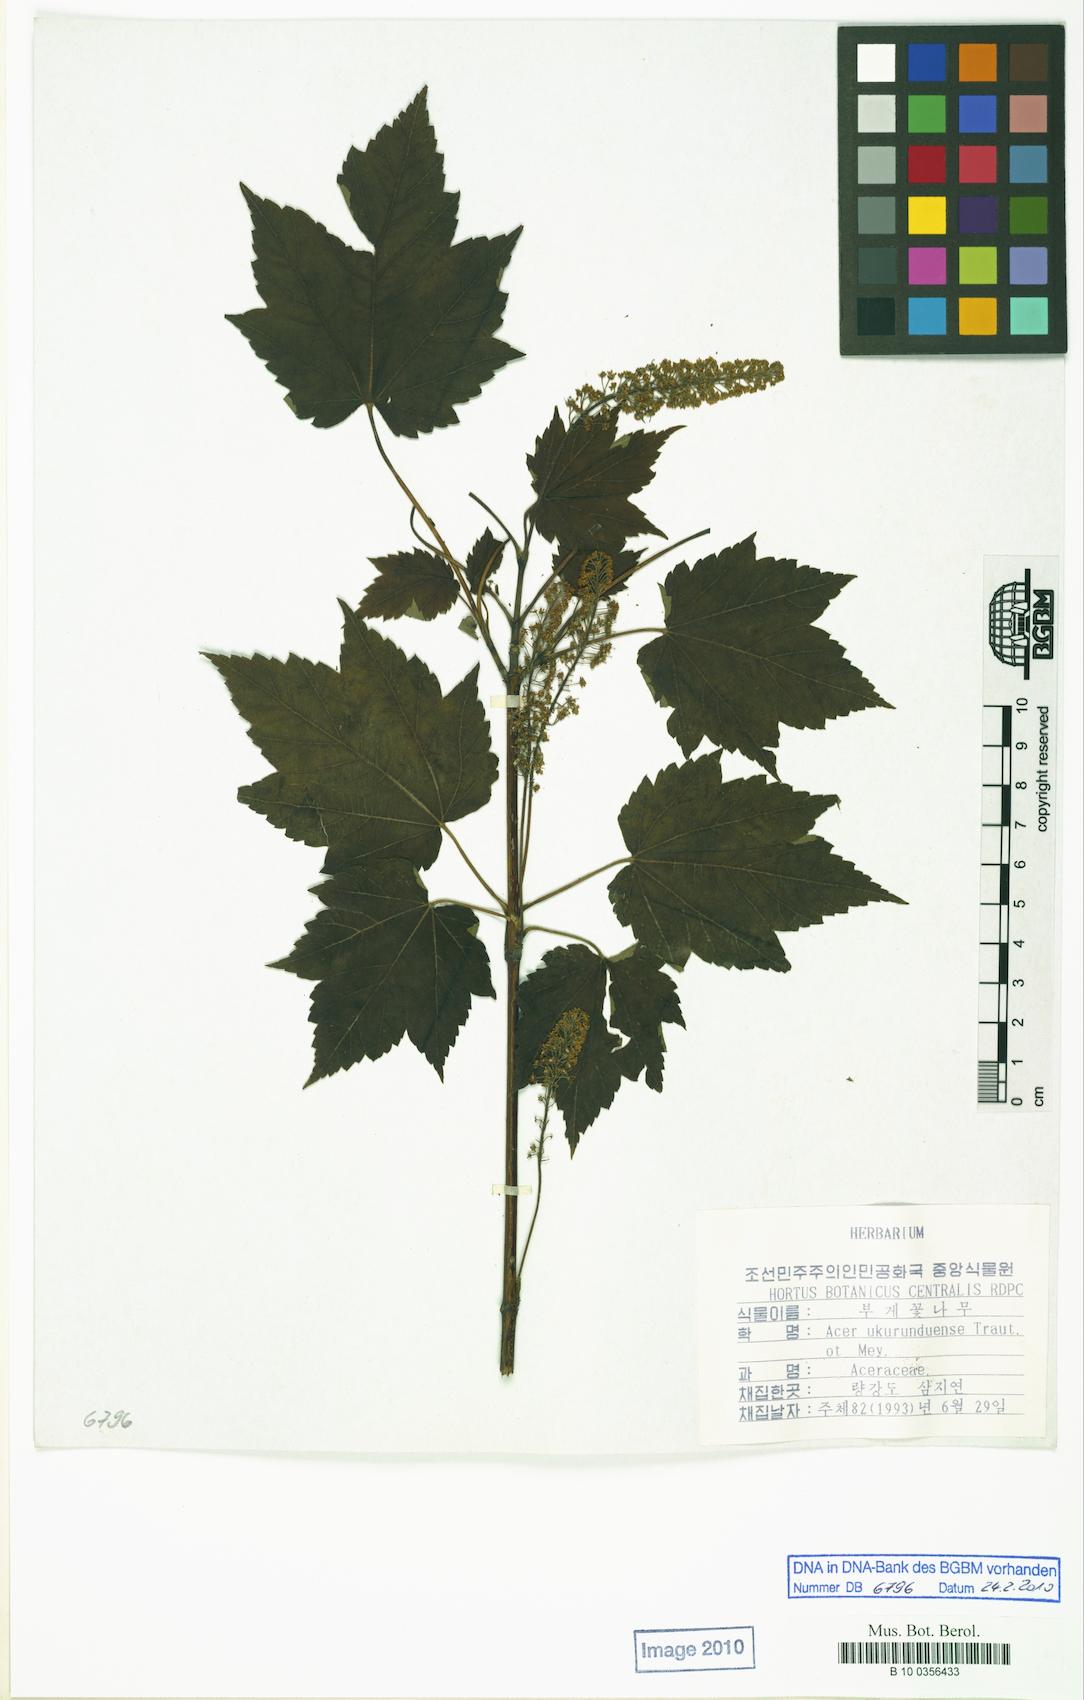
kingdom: Plantae
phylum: Tracheophyta
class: Magnoliopsida
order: Sapindales
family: Sapindaceae
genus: Acer
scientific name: Acer ukurunduense
